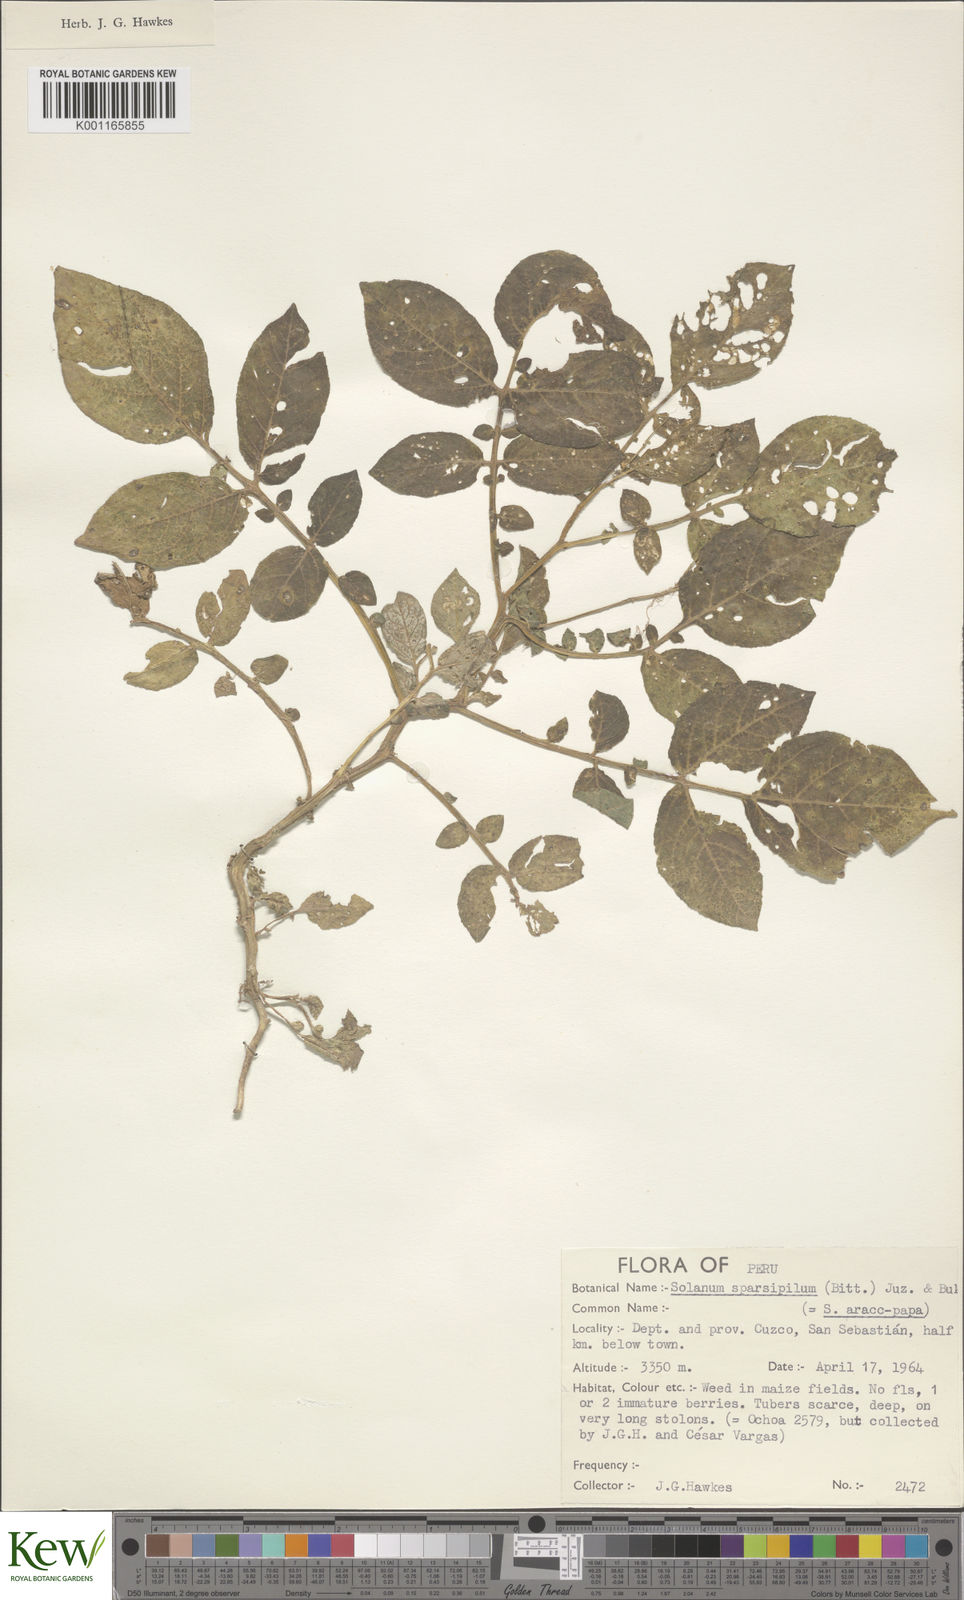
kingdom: Plantae
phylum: Tracheophyta
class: Magnoliopsida
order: Solanales
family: Solanaceae
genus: Solanum
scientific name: Solanum brevicaule
